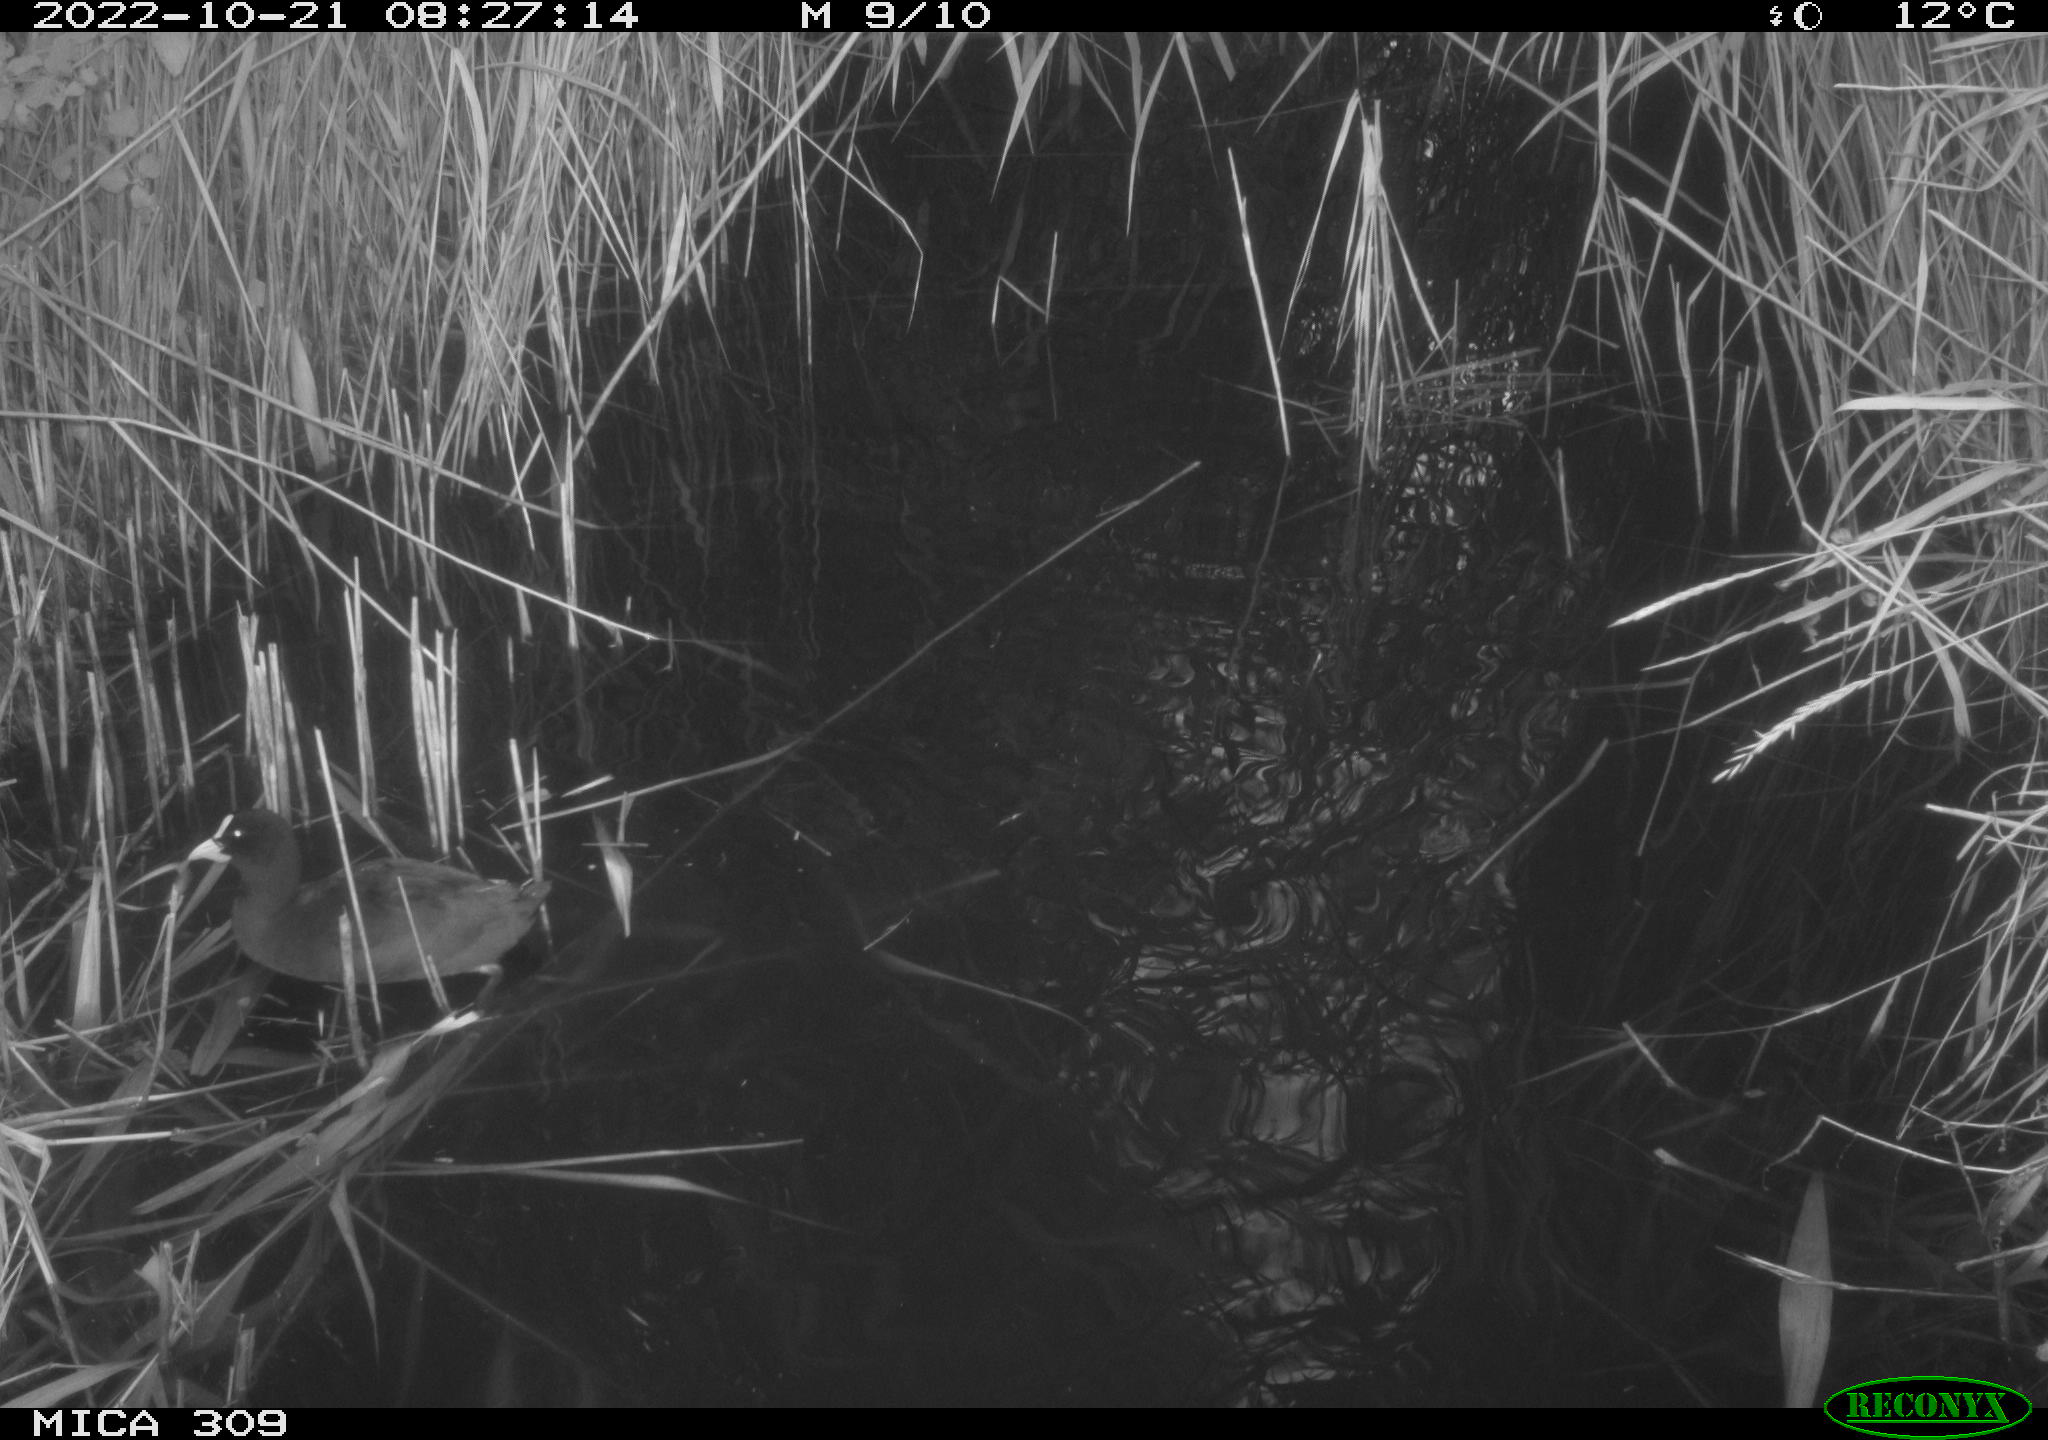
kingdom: Animalia
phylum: Chordata
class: Aves
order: Gruiformes
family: Rallidae
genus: Fulica
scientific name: Fulica atra
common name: Eurasian coot
